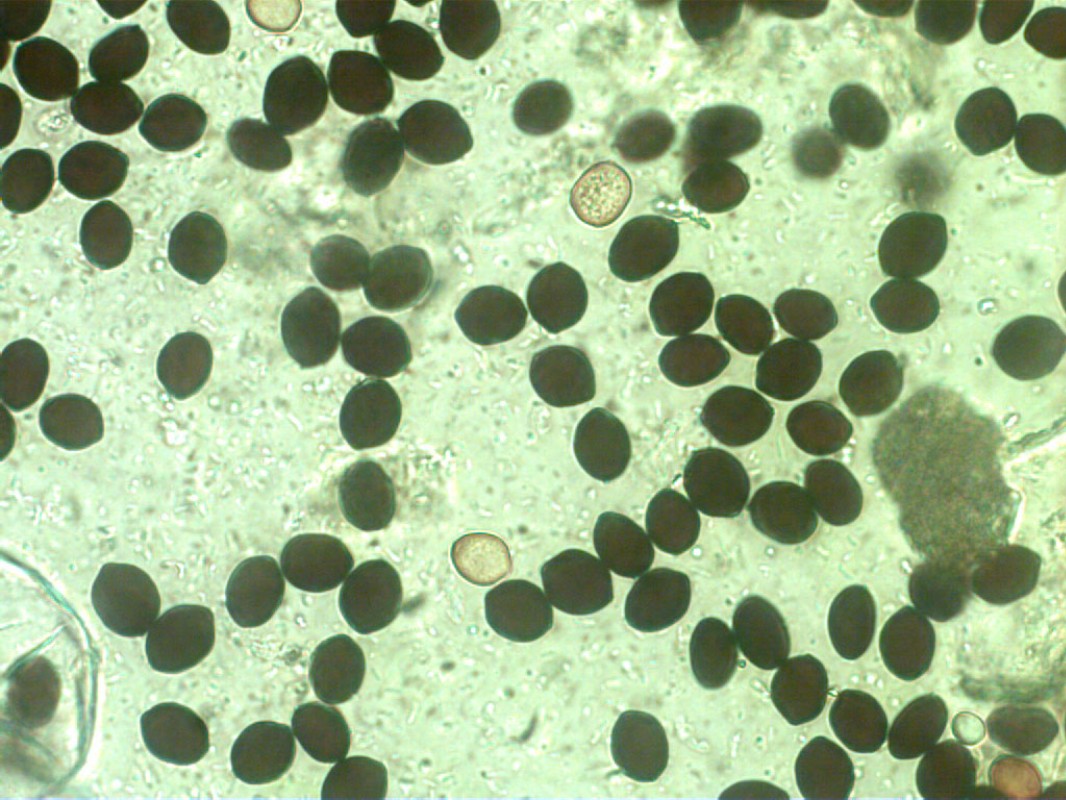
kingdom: Fungi
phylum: Basidiomycota
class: Agaricomycetes
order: Agaricales
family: Psathyrellaceae
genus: Coprinopsis
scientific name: Coprinopsis nivea
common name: snehvid blækhat
